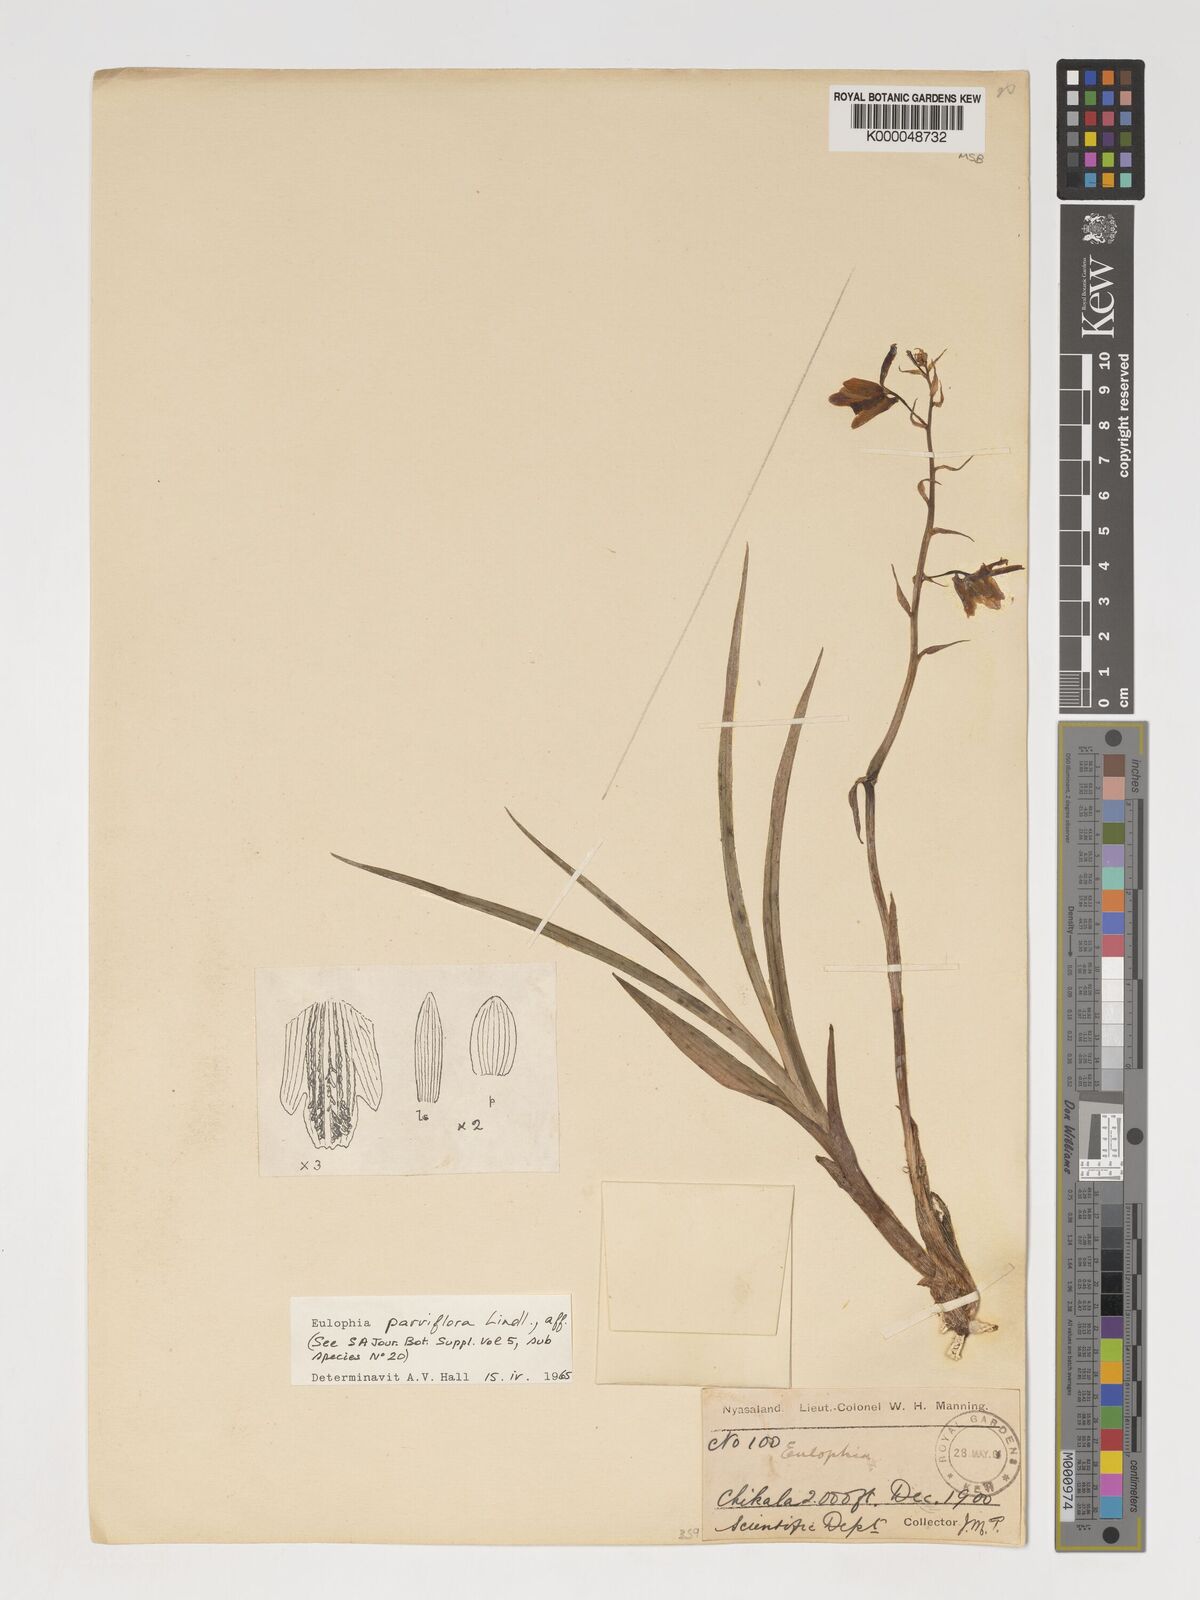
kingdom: Plantae
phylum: Tracheophyta
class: Liliopsida
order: Asparagales
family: Orchidaceae
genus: Eulophia
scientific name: Eulophia monticola
